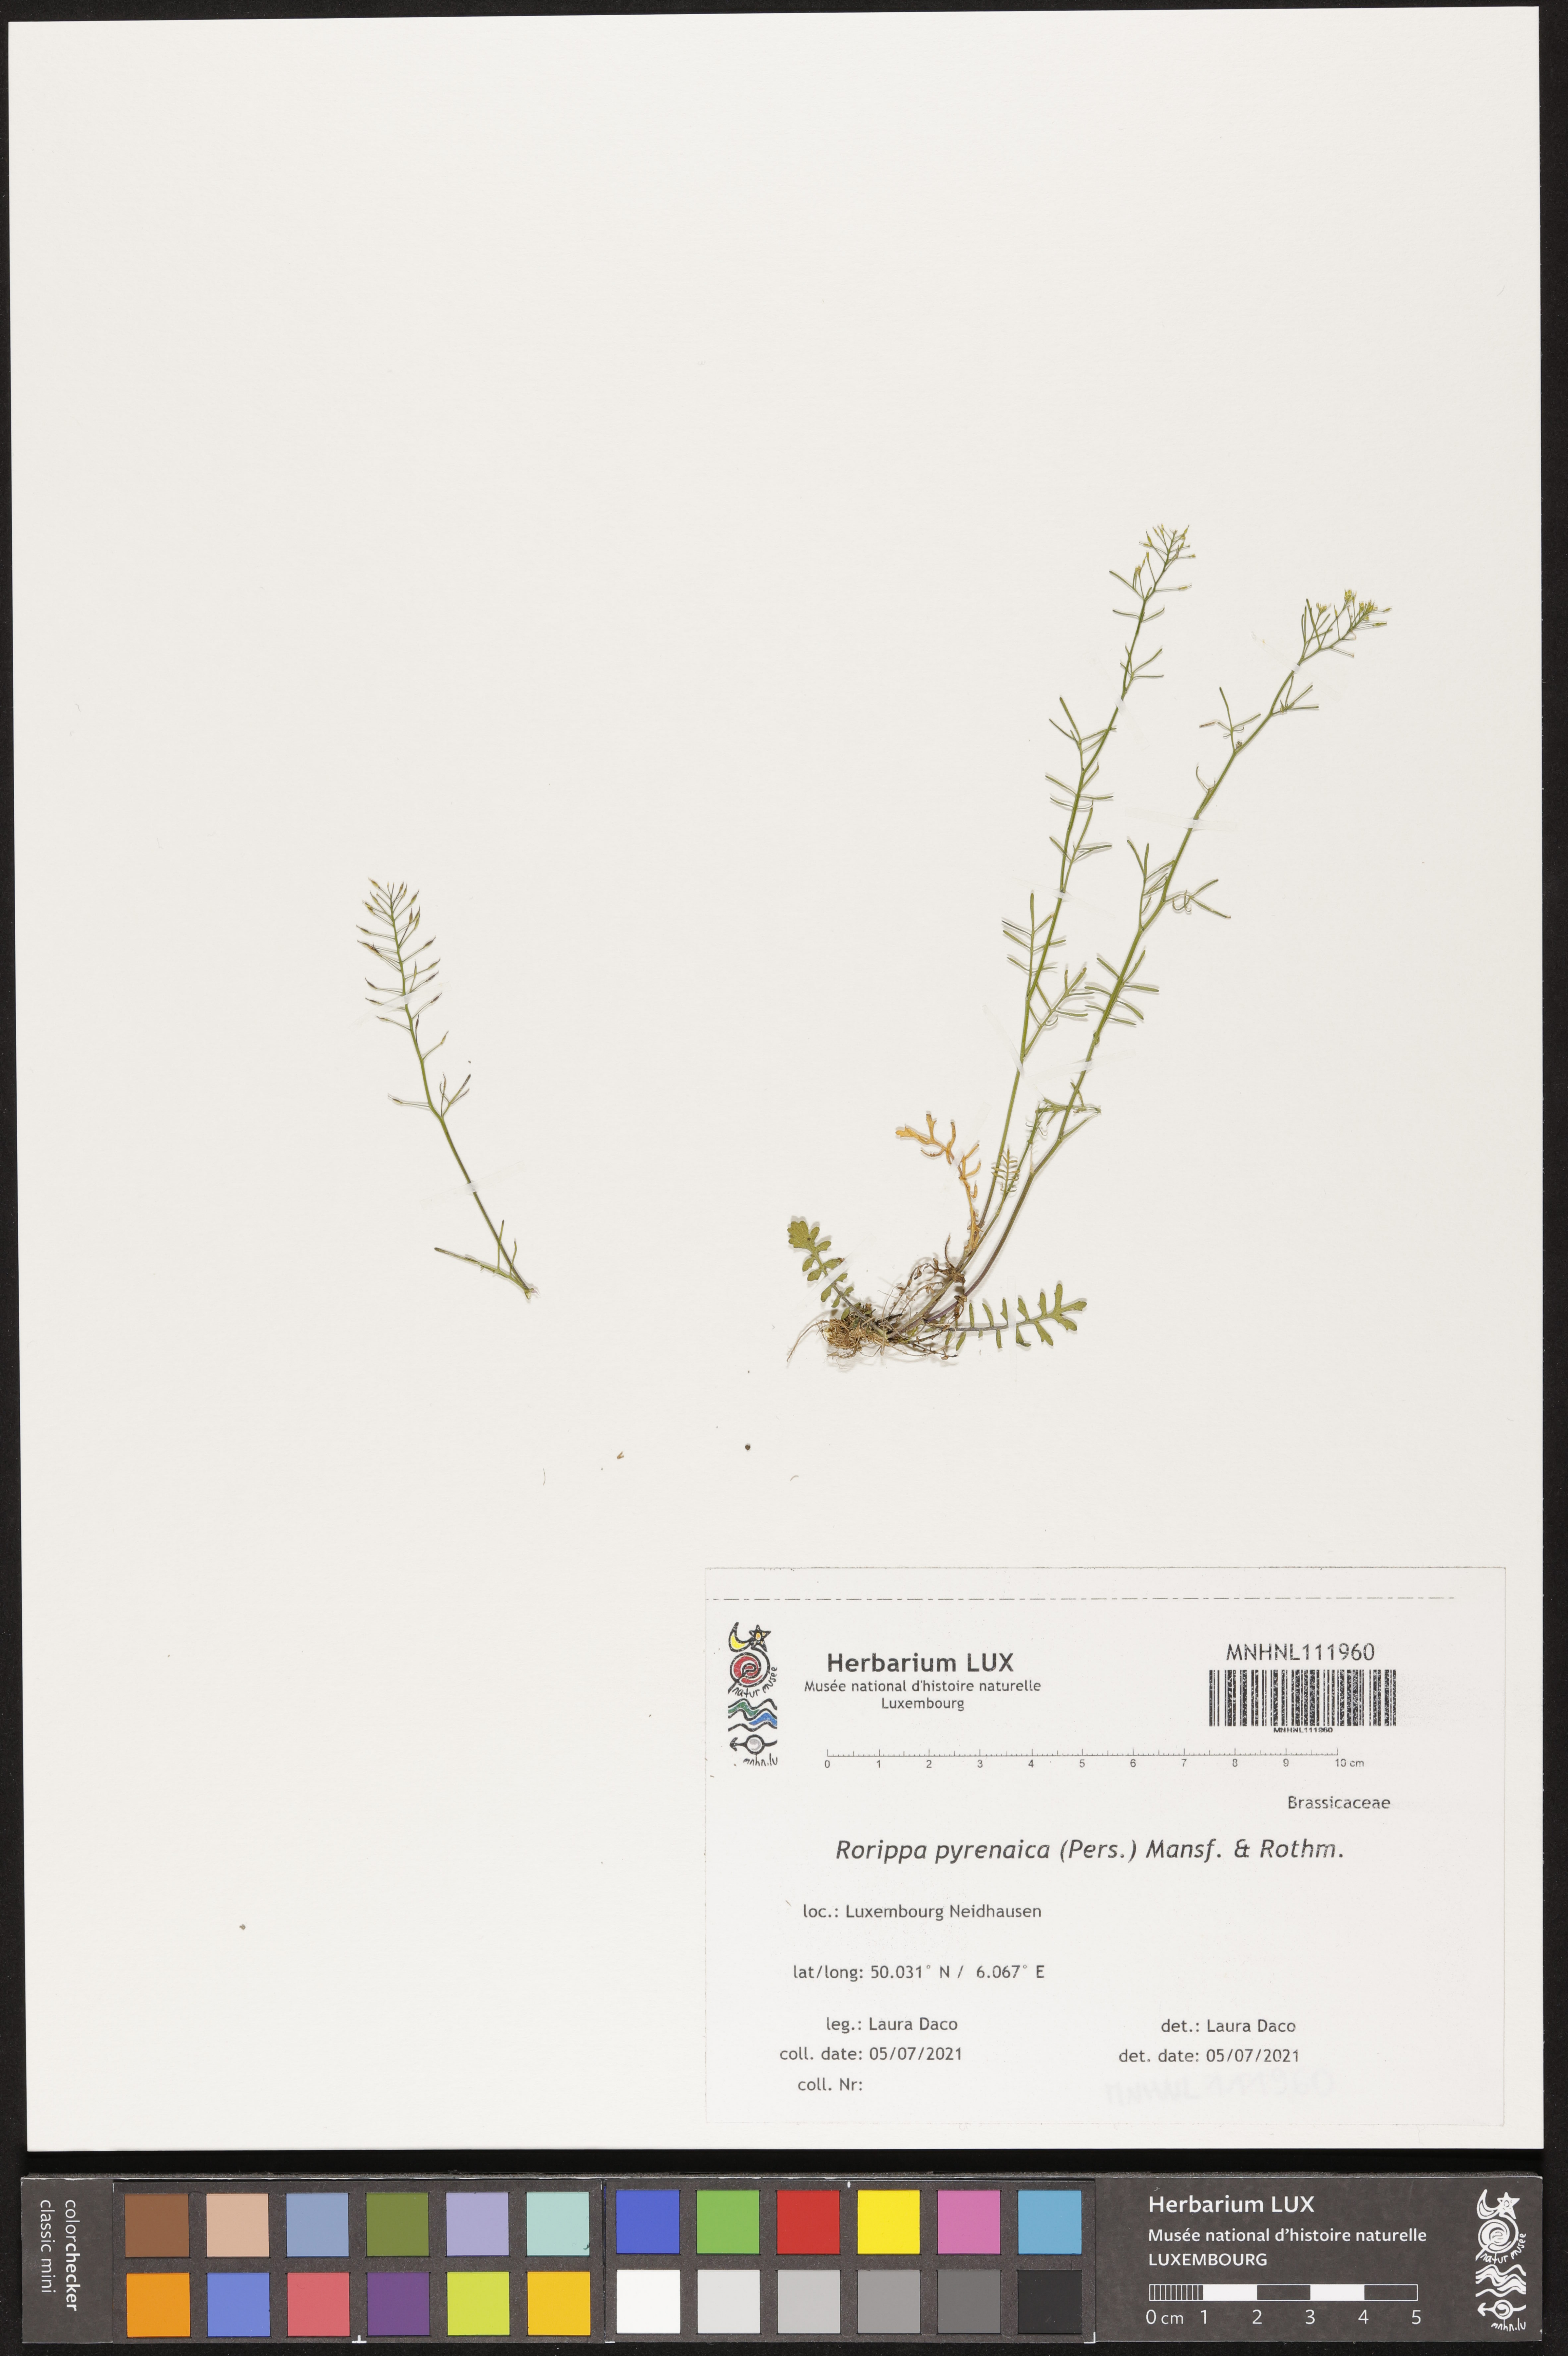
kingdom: Plantae
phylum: Tracheophyta
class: Magnoliopsida
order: Brassicales
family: Brassicaceae
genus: Rorippa
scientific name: Rorippa pyrenaica
